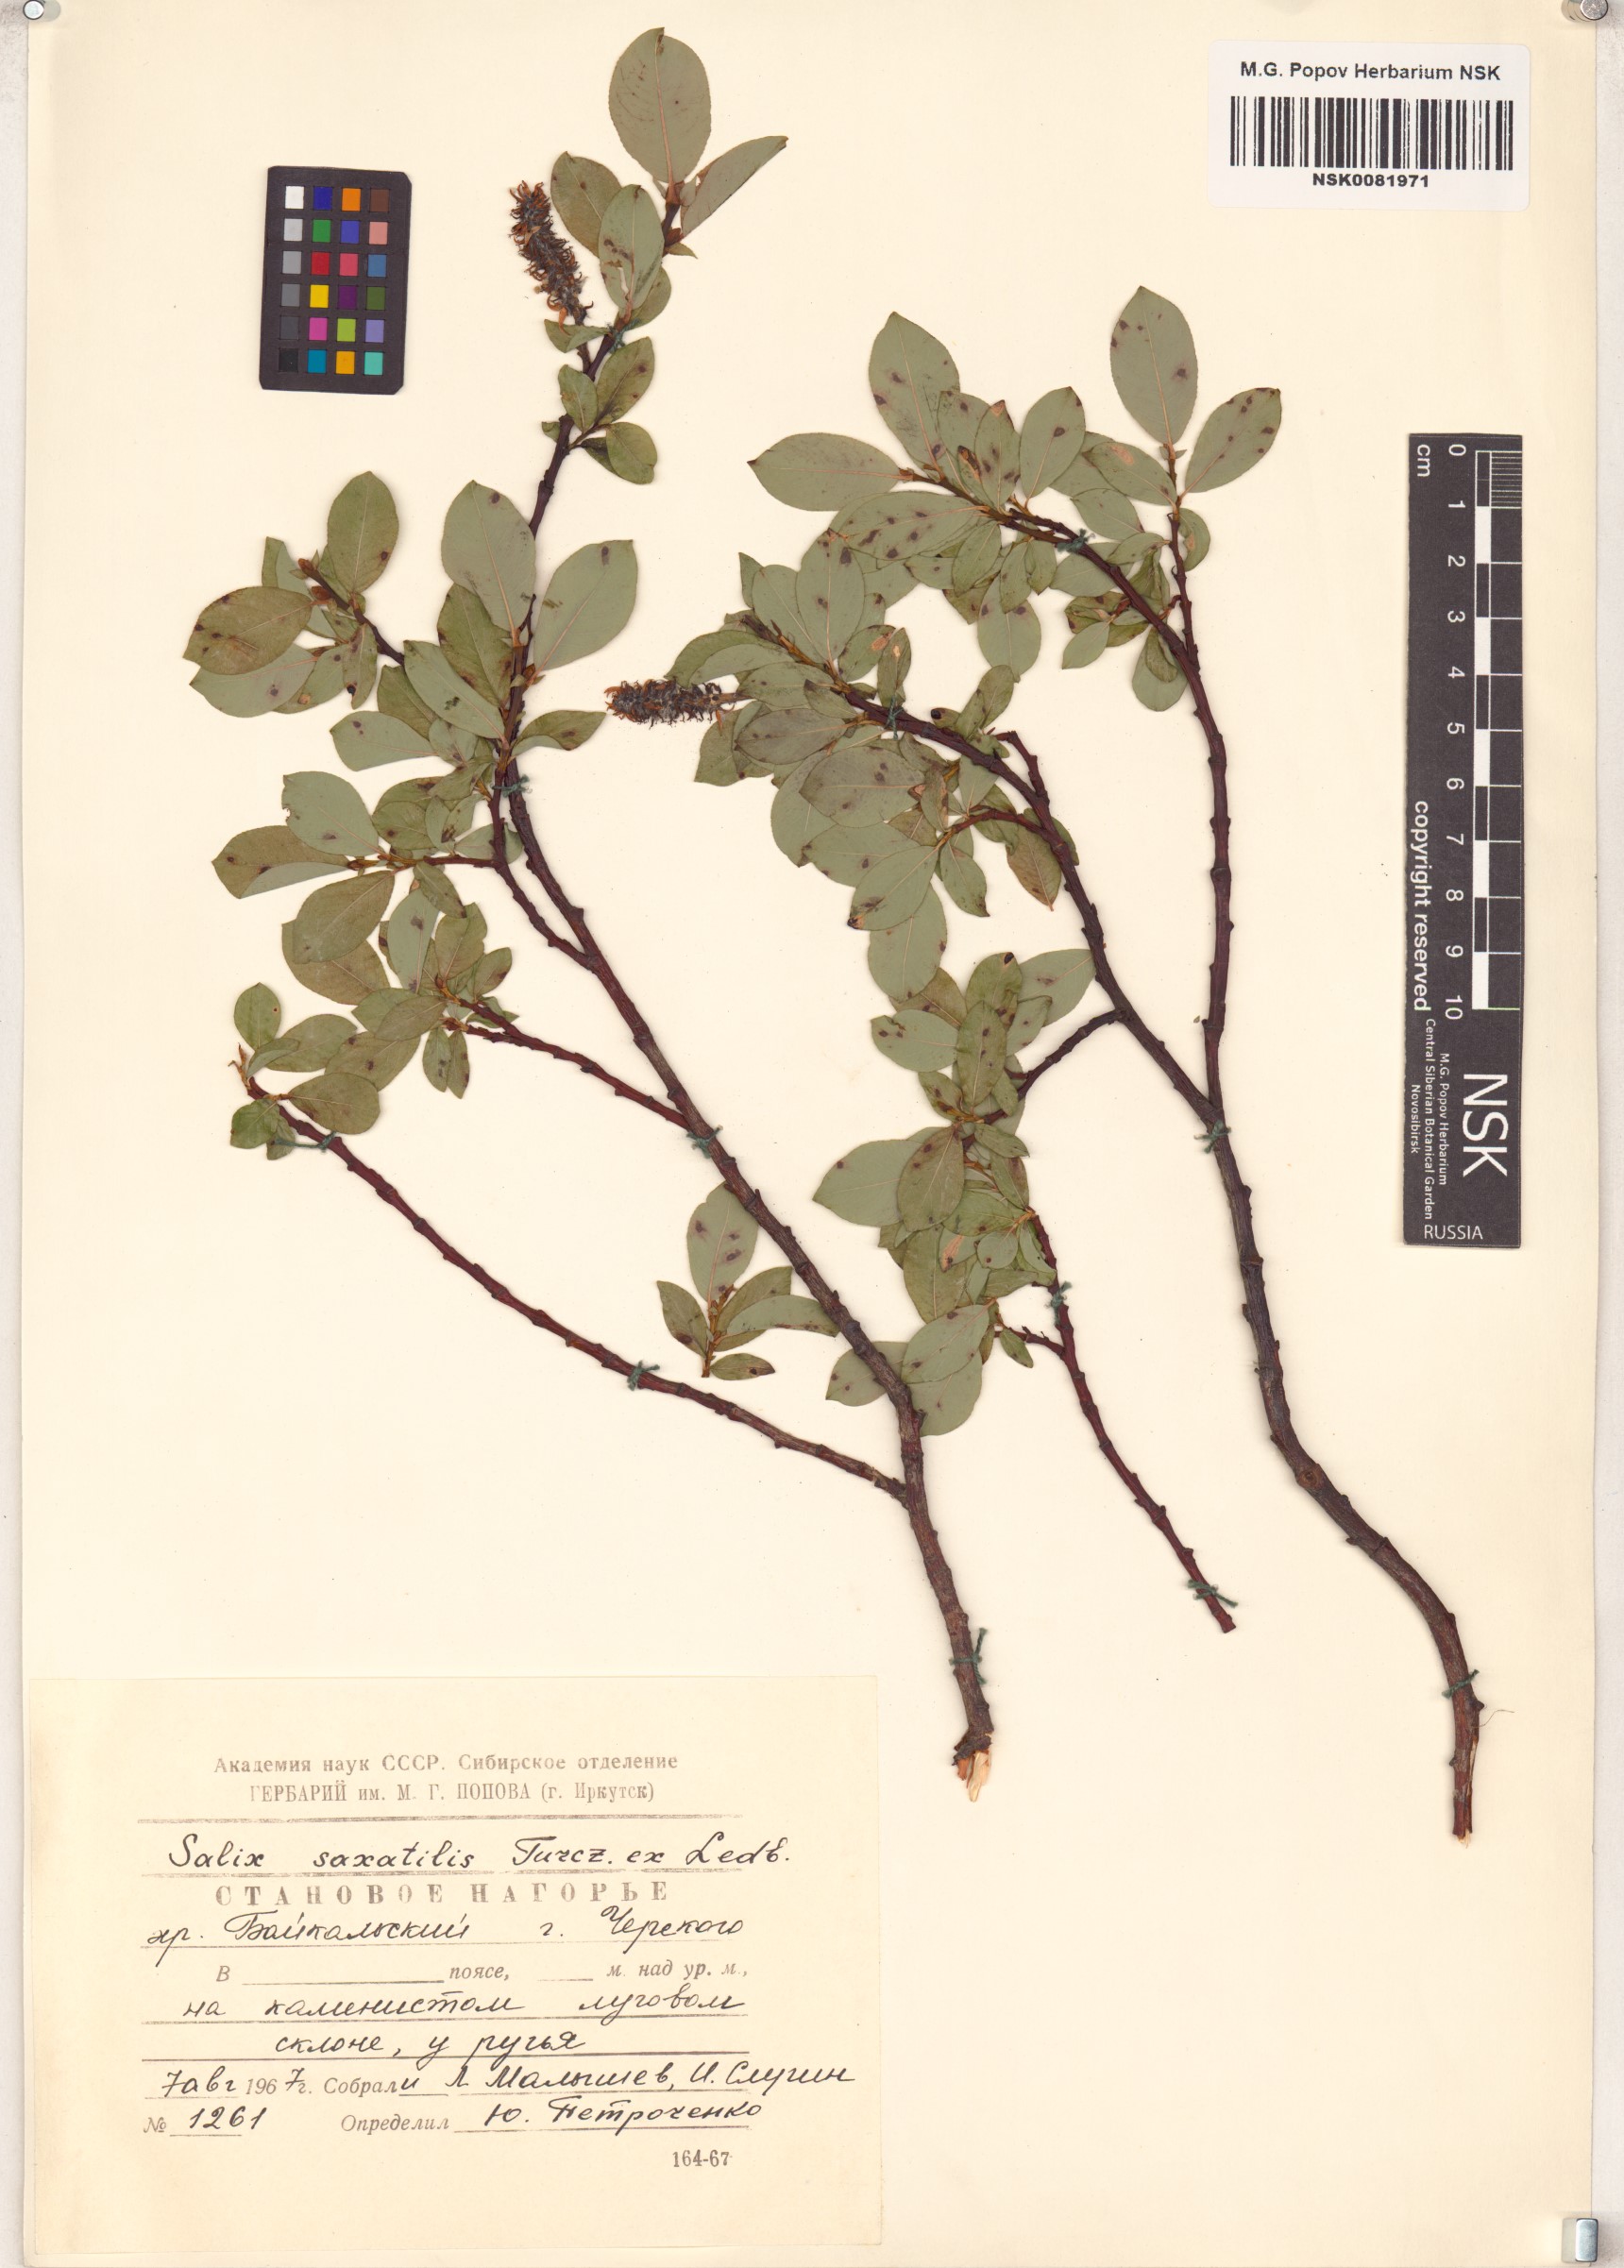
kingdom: Plantae
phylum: Tracheophyta
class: Magnoliopsida
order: Malpighiales
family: Salicaceae
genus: Salix
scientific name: Salix saxatilis
